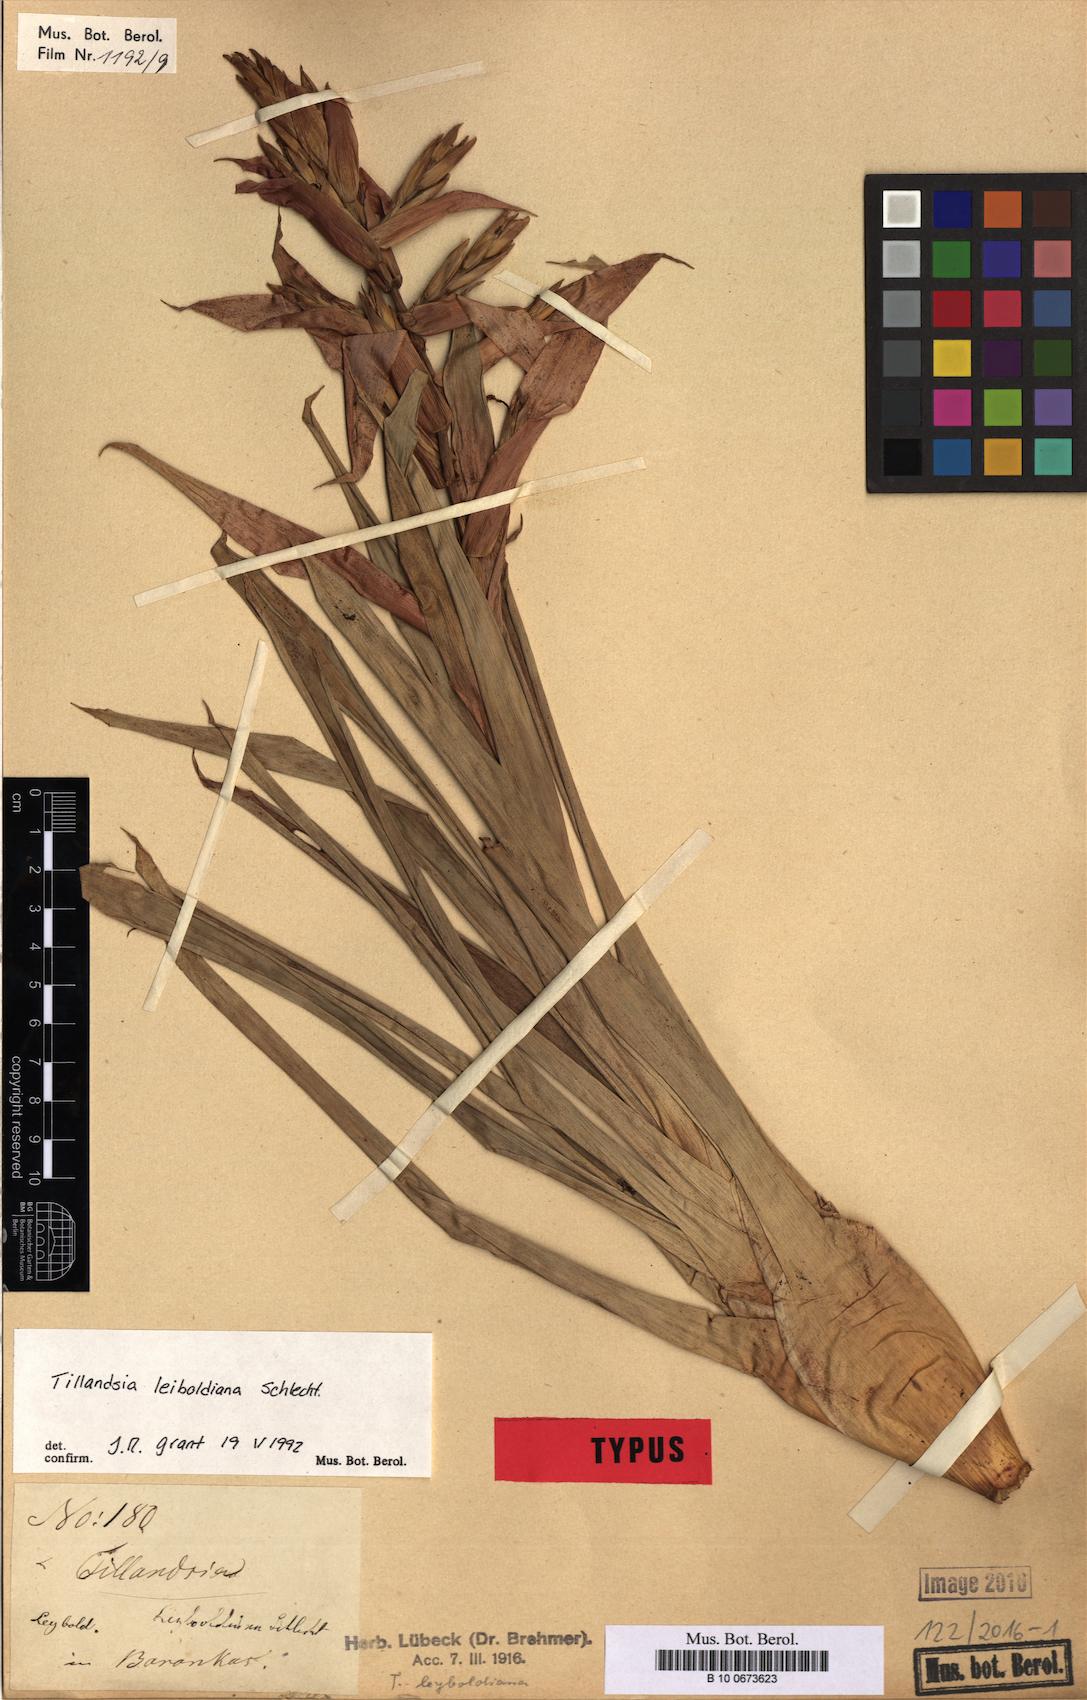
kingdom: Plantae
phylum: Tracheophyta
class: Liliopsida
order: Poales
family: Bromeliaceae
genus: Tillandsia
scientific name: Tillandsia leiboldiana
